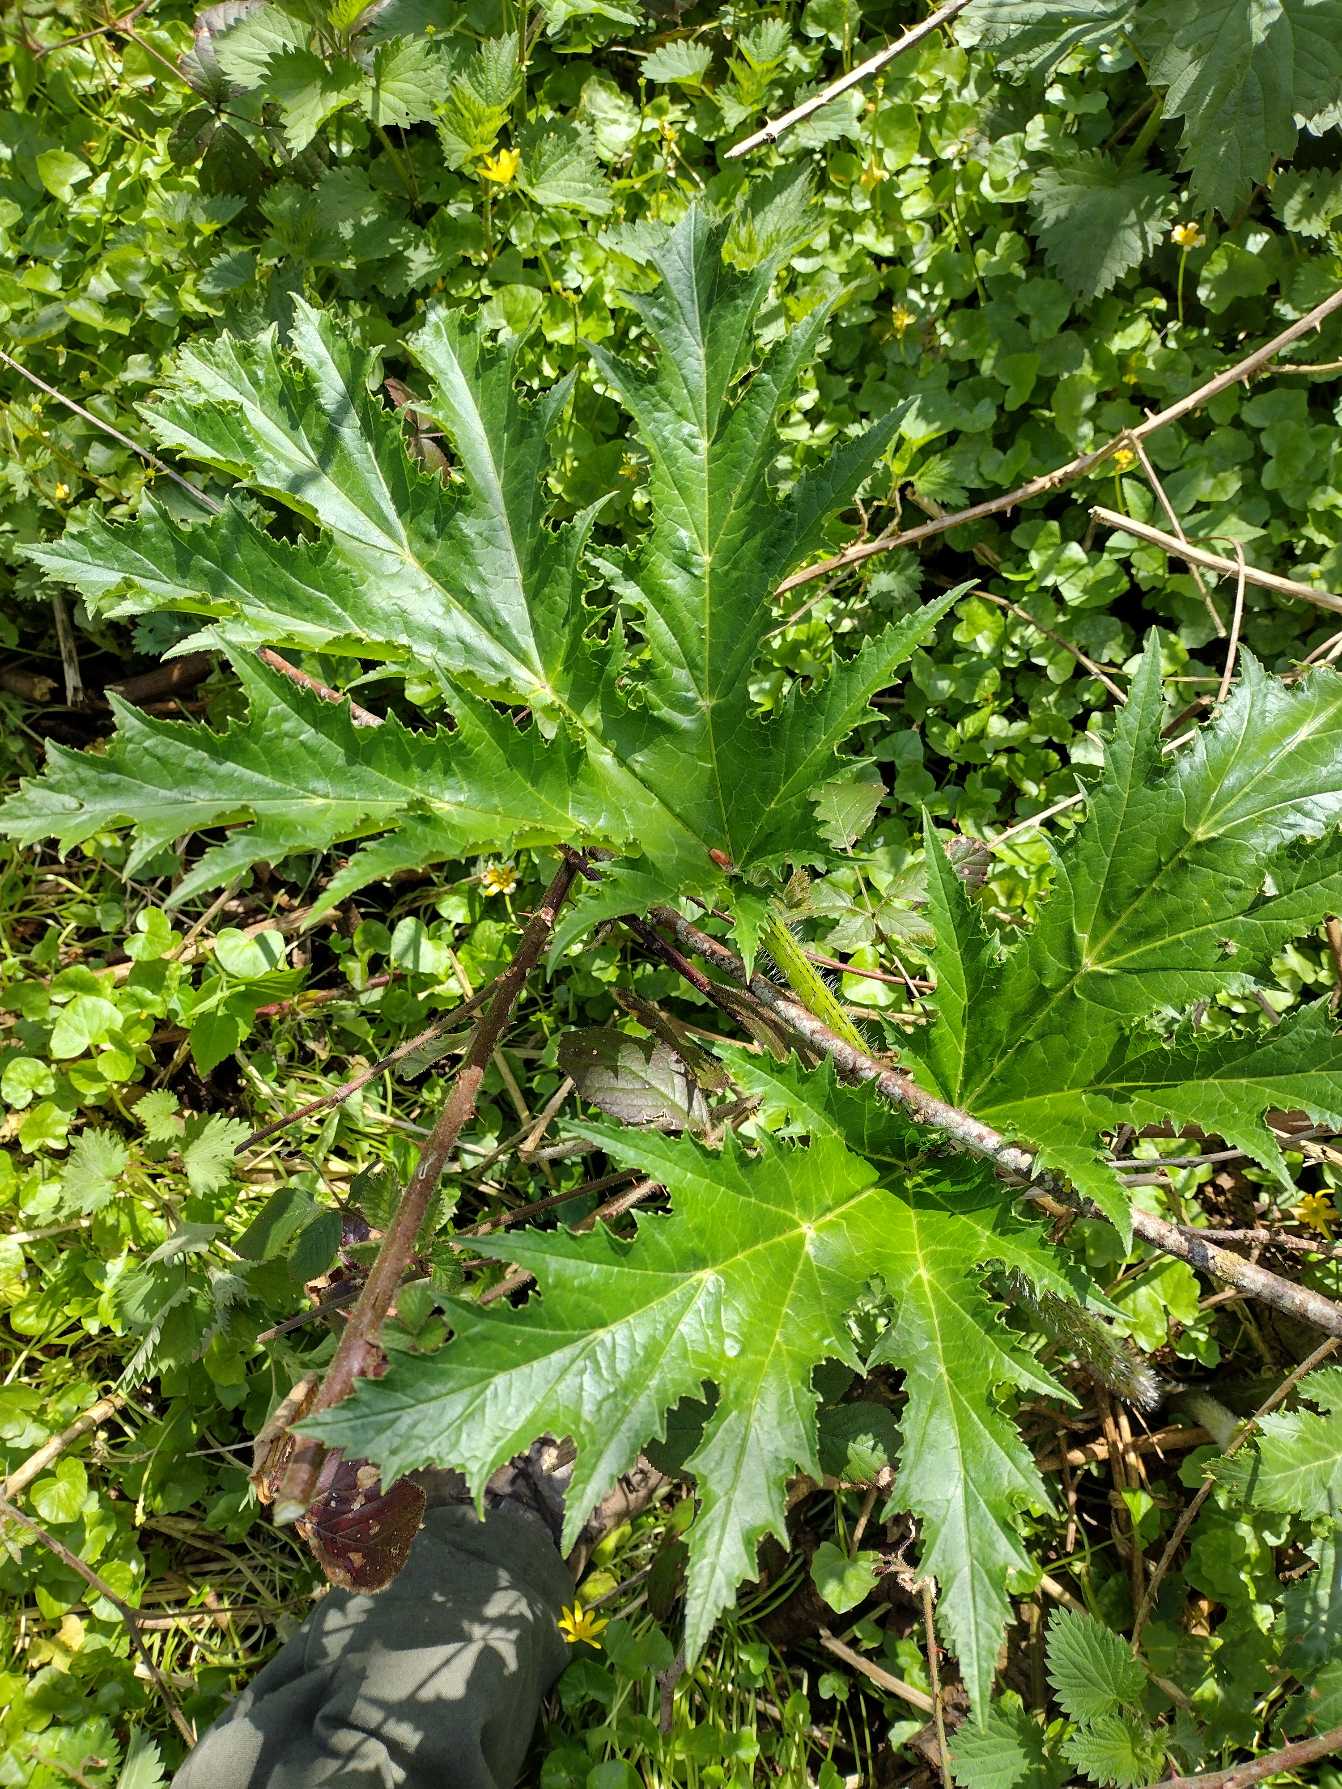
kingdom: Plantae
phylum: Tracheophyta
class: Magnoliopsida
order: Apiales
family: Apiaceae
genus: Heracleum
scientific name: Heracleum mantegazzianum
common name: Kæmpe-bjørneklo
